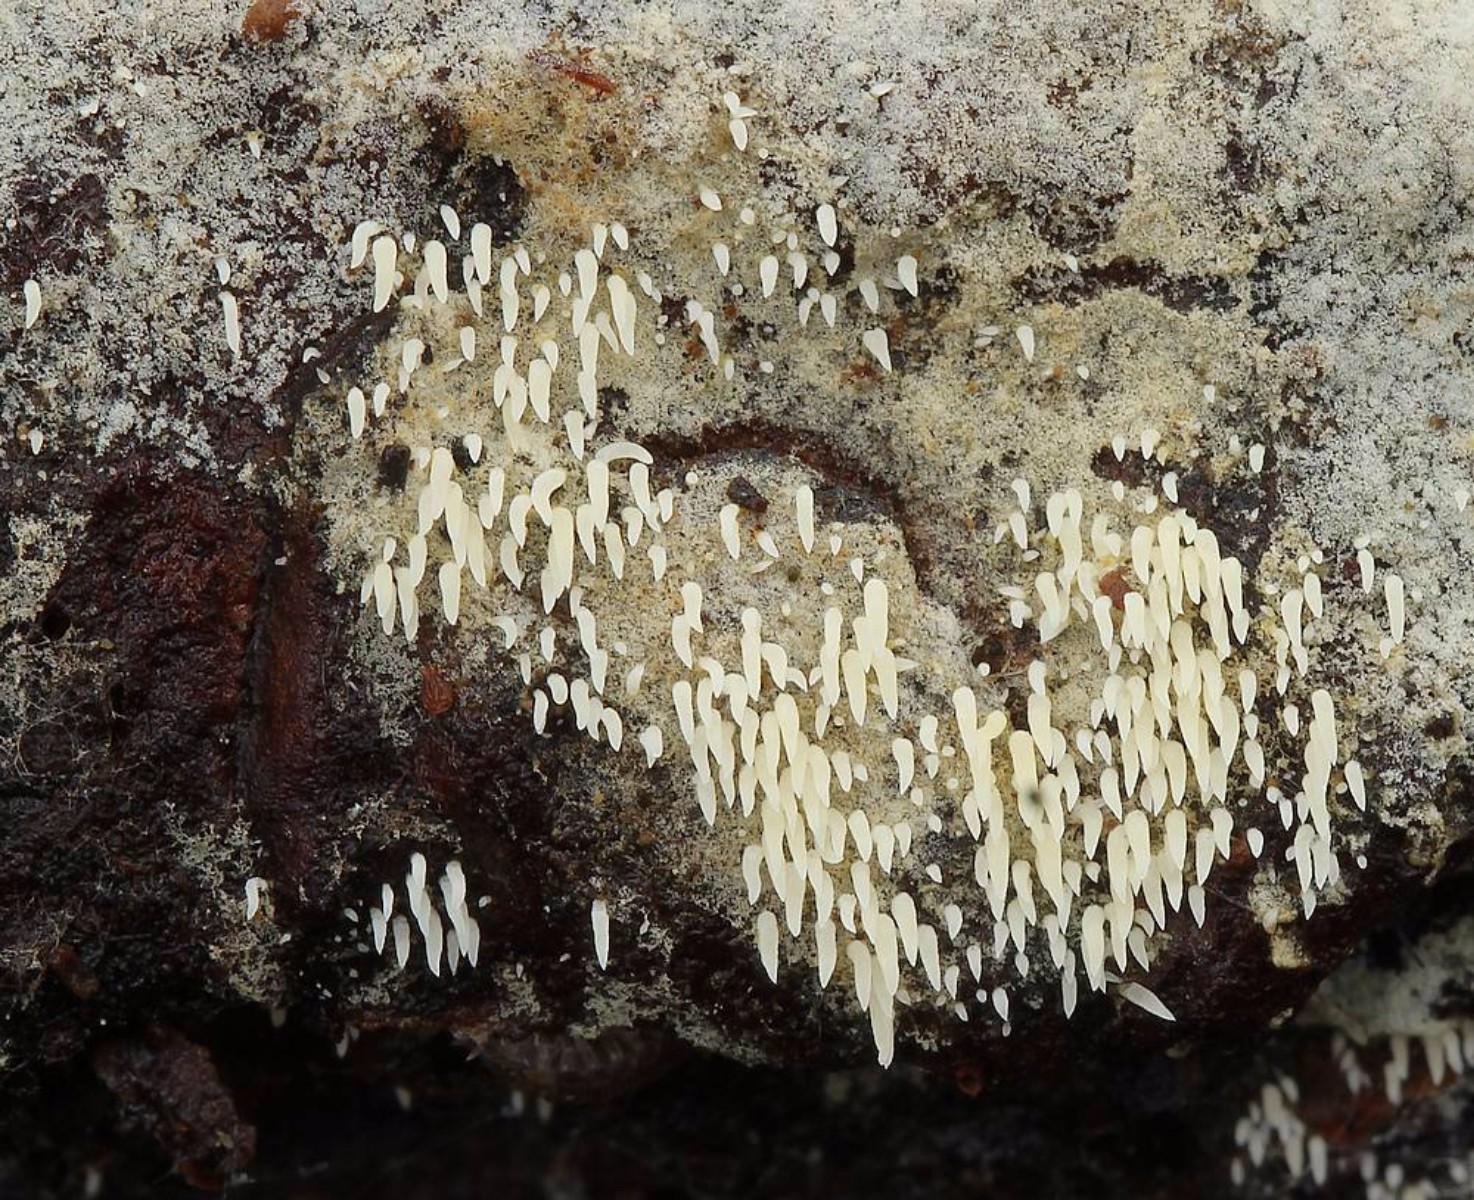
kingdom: Fungi
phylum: Basidiomycota
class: Agaricomycetes
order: Agaricales
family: Clavariaceae
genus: Mucronella
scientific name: Mucronella flava
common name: gul hængepig
